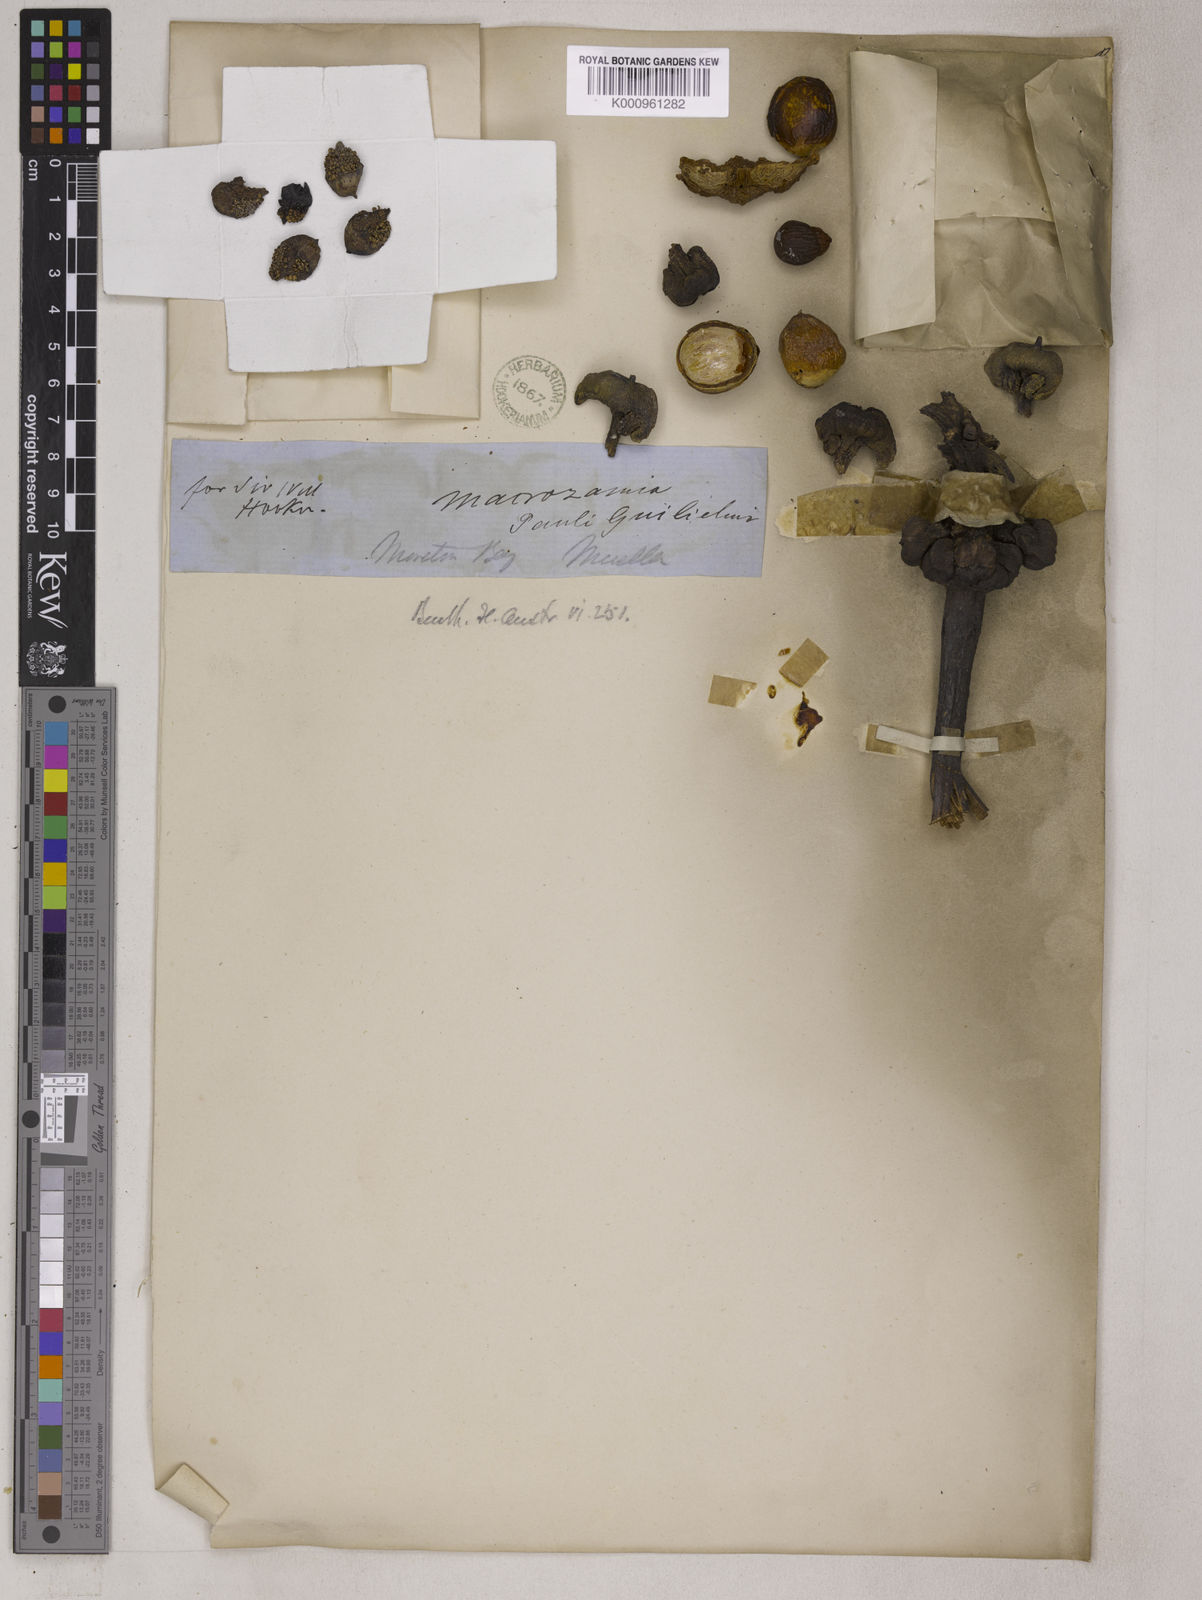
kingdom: Plantae
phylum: Tracheophyta
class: Cycadopsida
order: Cycadales
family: Zamiaceae
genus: Macrozamia
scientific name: Macrozamia pauli-guilielmi
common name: Pineapple zamia
